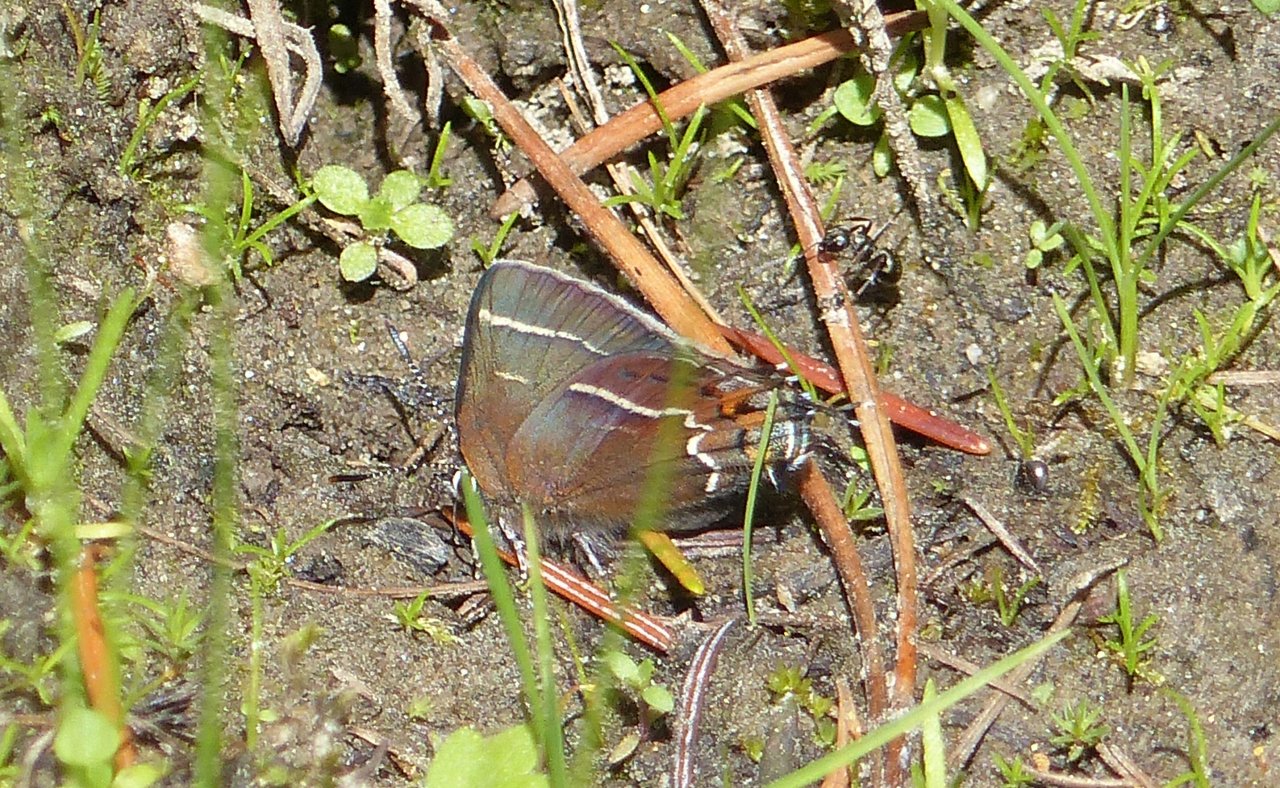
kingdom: Animalia
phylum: Arthropoda
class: Insecta
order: Lepidoptera
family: Lycaenidae
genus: Mitoura
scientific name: Mitoura spinetorum
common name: Thicket Hairstreak
